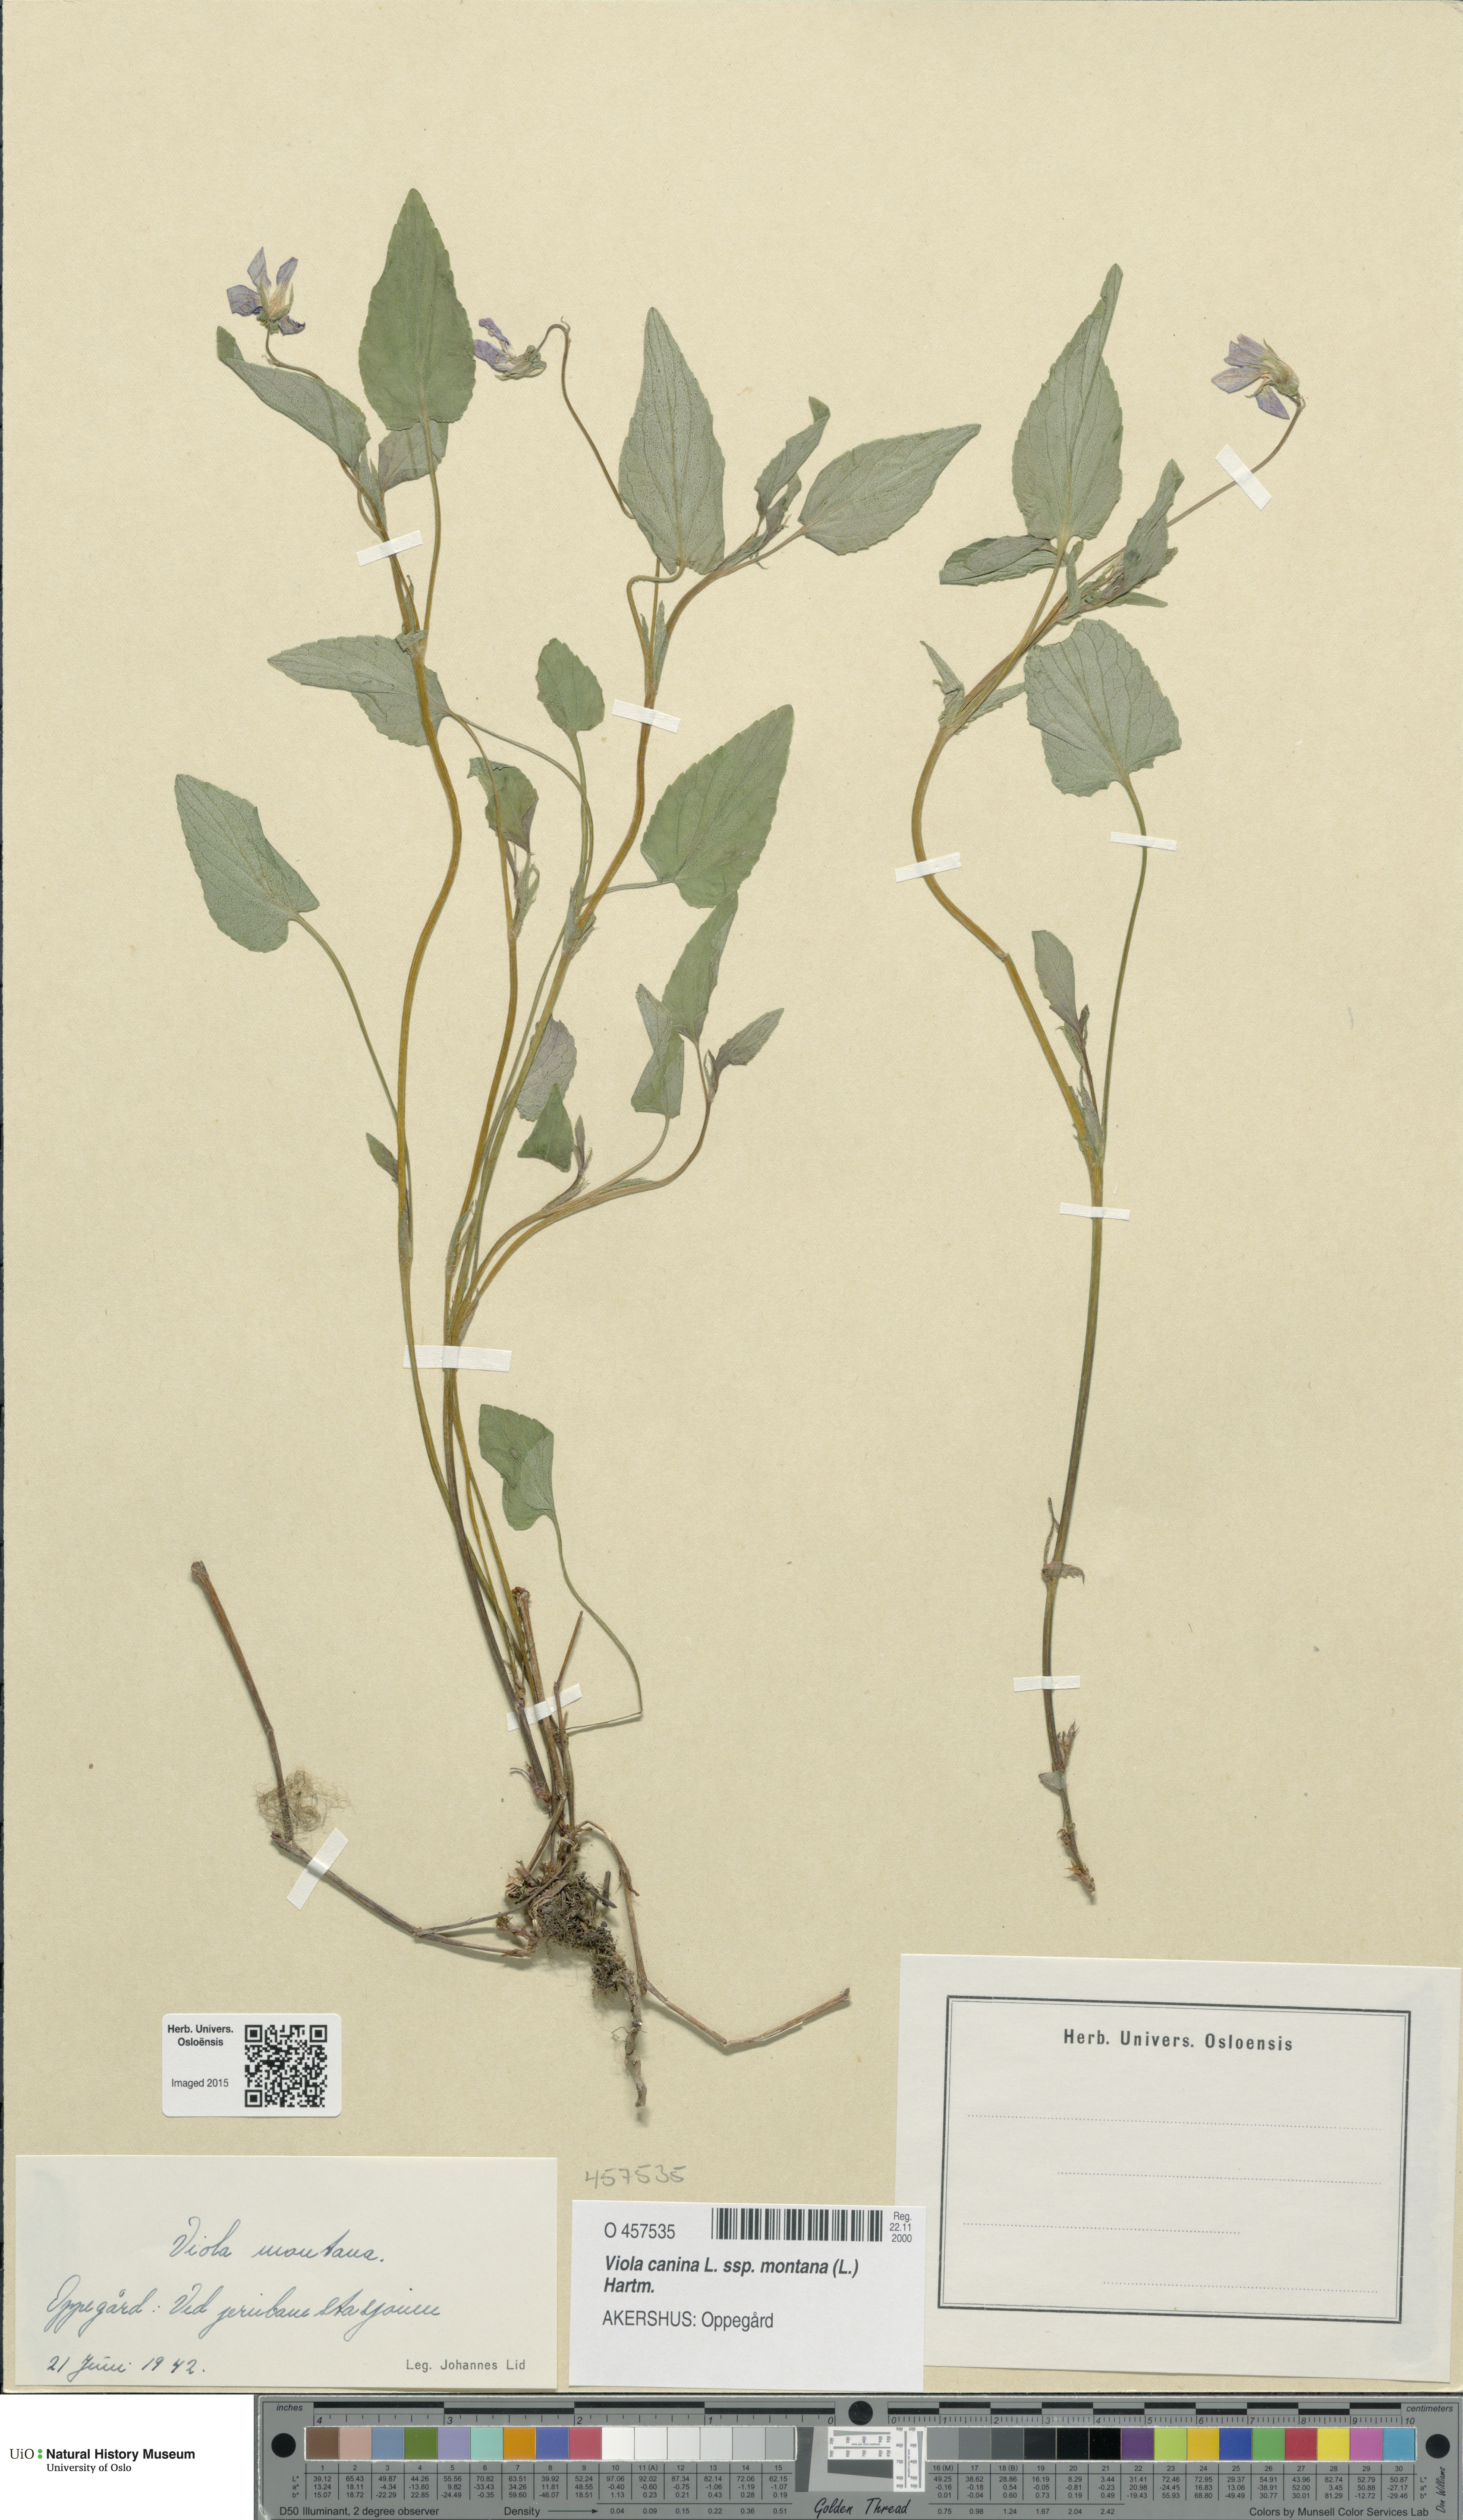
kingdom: Plantae
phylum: Tracheophyta
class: Magnoliopsida
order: Malpighiales
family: Violaceae
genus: Viola
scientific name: Viola ruppii
